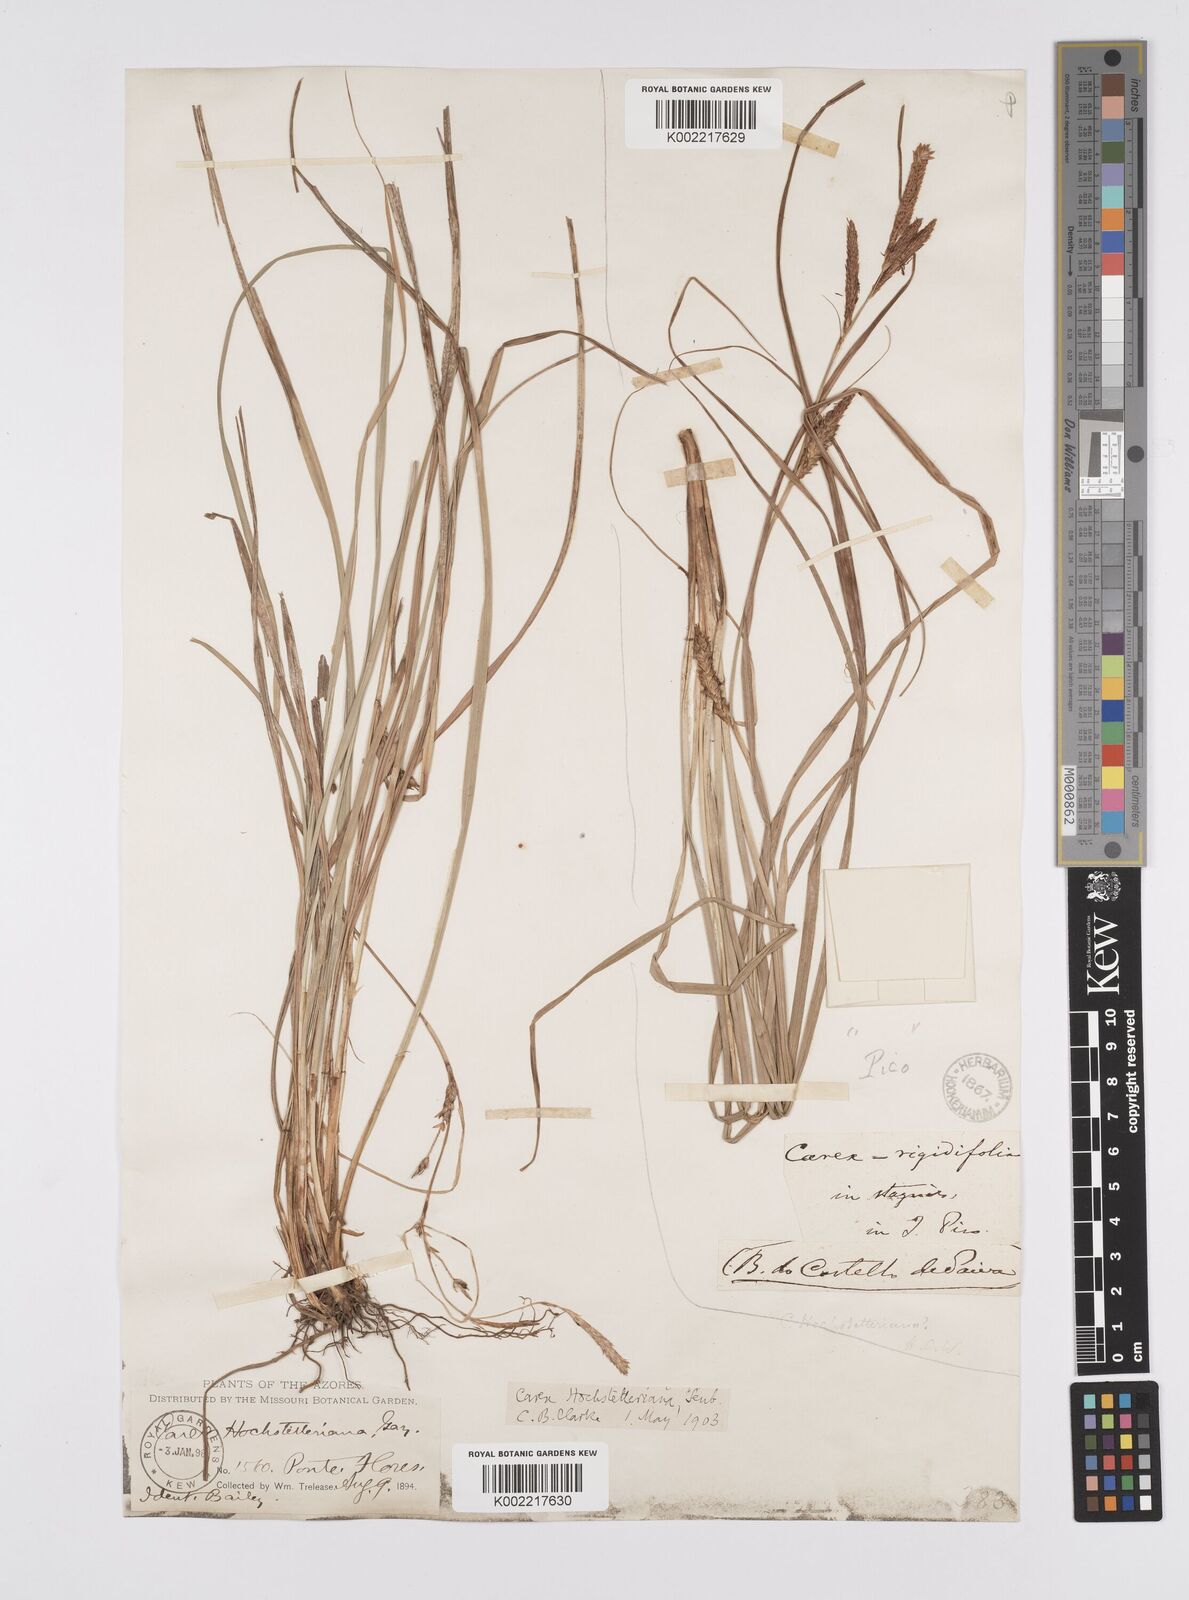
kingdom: Plantae
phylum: Tracheophyta
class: Liliopsida
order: Poales
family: Cyperaceae
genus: Carex
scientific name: Carex hochstetteriana
